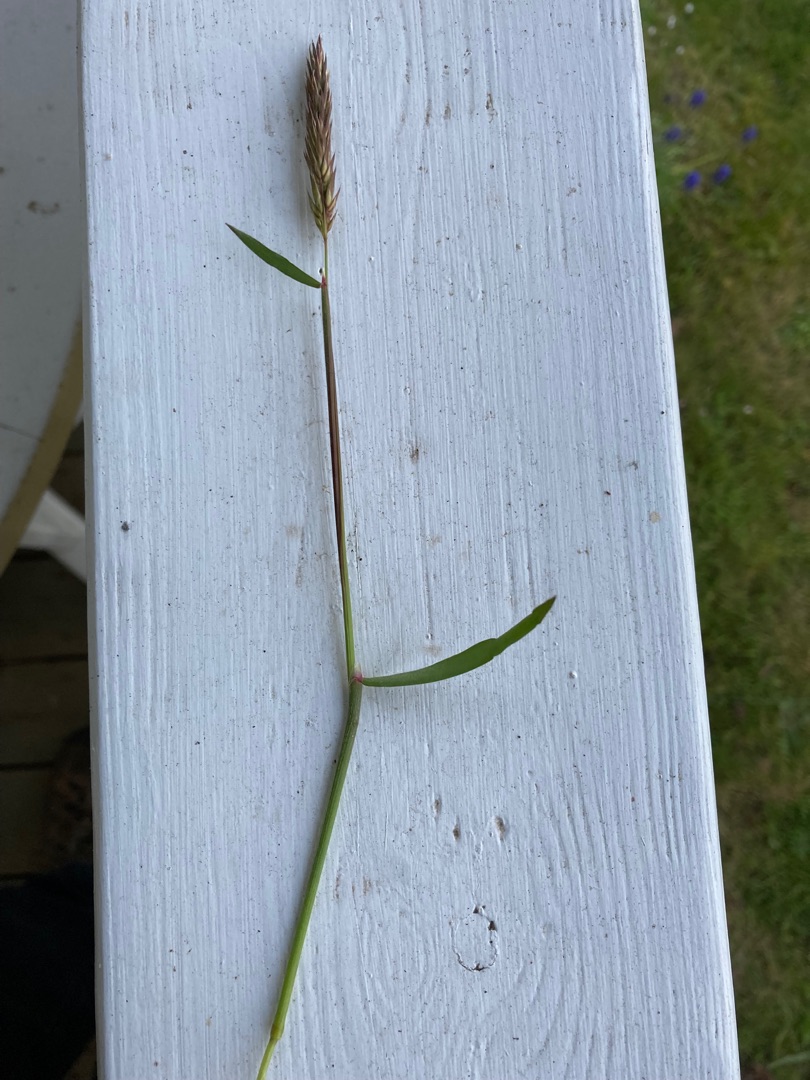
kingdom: Plantae
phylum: Tracheophyta
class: Liliopsida
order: Poales
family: Poaceae
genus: Anthoxanthum
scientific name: Anthoxanthum odoratum
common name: Vellugtende gulaks
